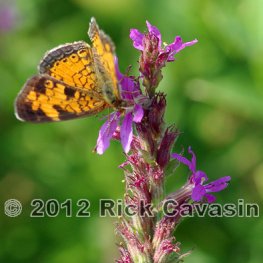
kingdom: Animalia
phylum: Arthropoda
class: Insecta
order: Lepidoptera
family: Nymphalidae
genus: Phyciodes
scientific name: Phyciodes tharos
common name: Northern Crescent
